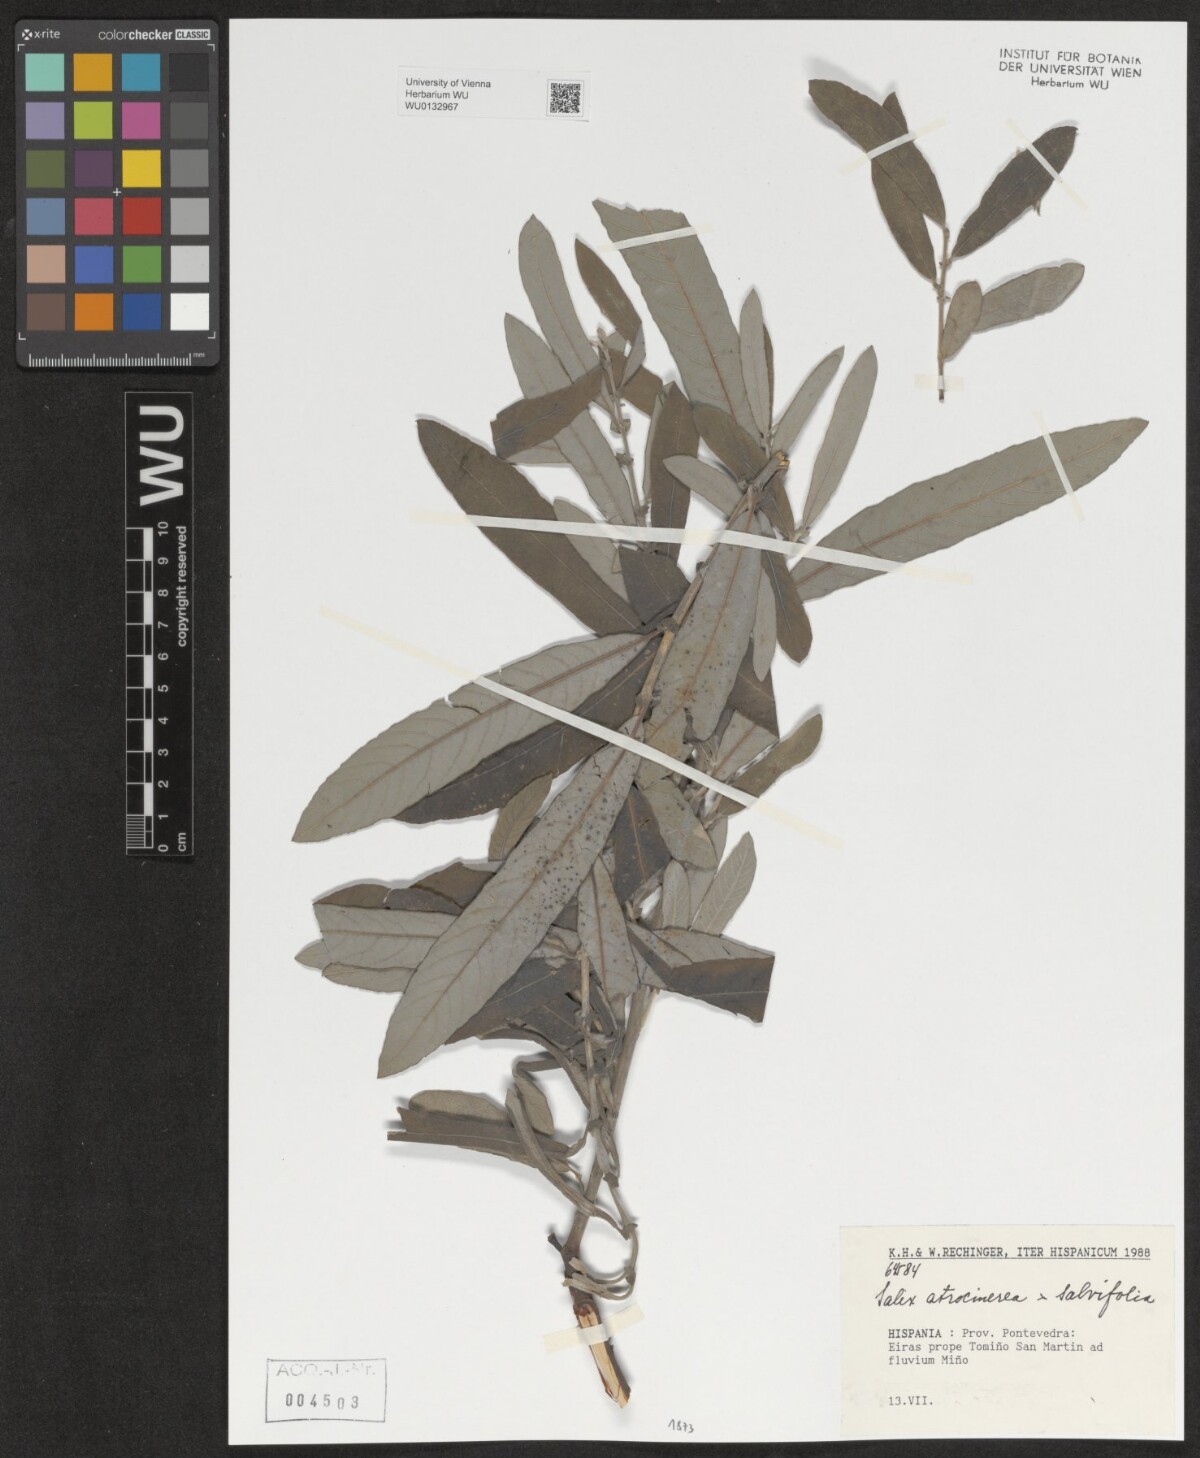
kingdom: Plantae
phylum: Tracheophyta
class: Magnoliopsida
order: Malpighiales
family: Salicaceae
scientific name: Salicaceae
